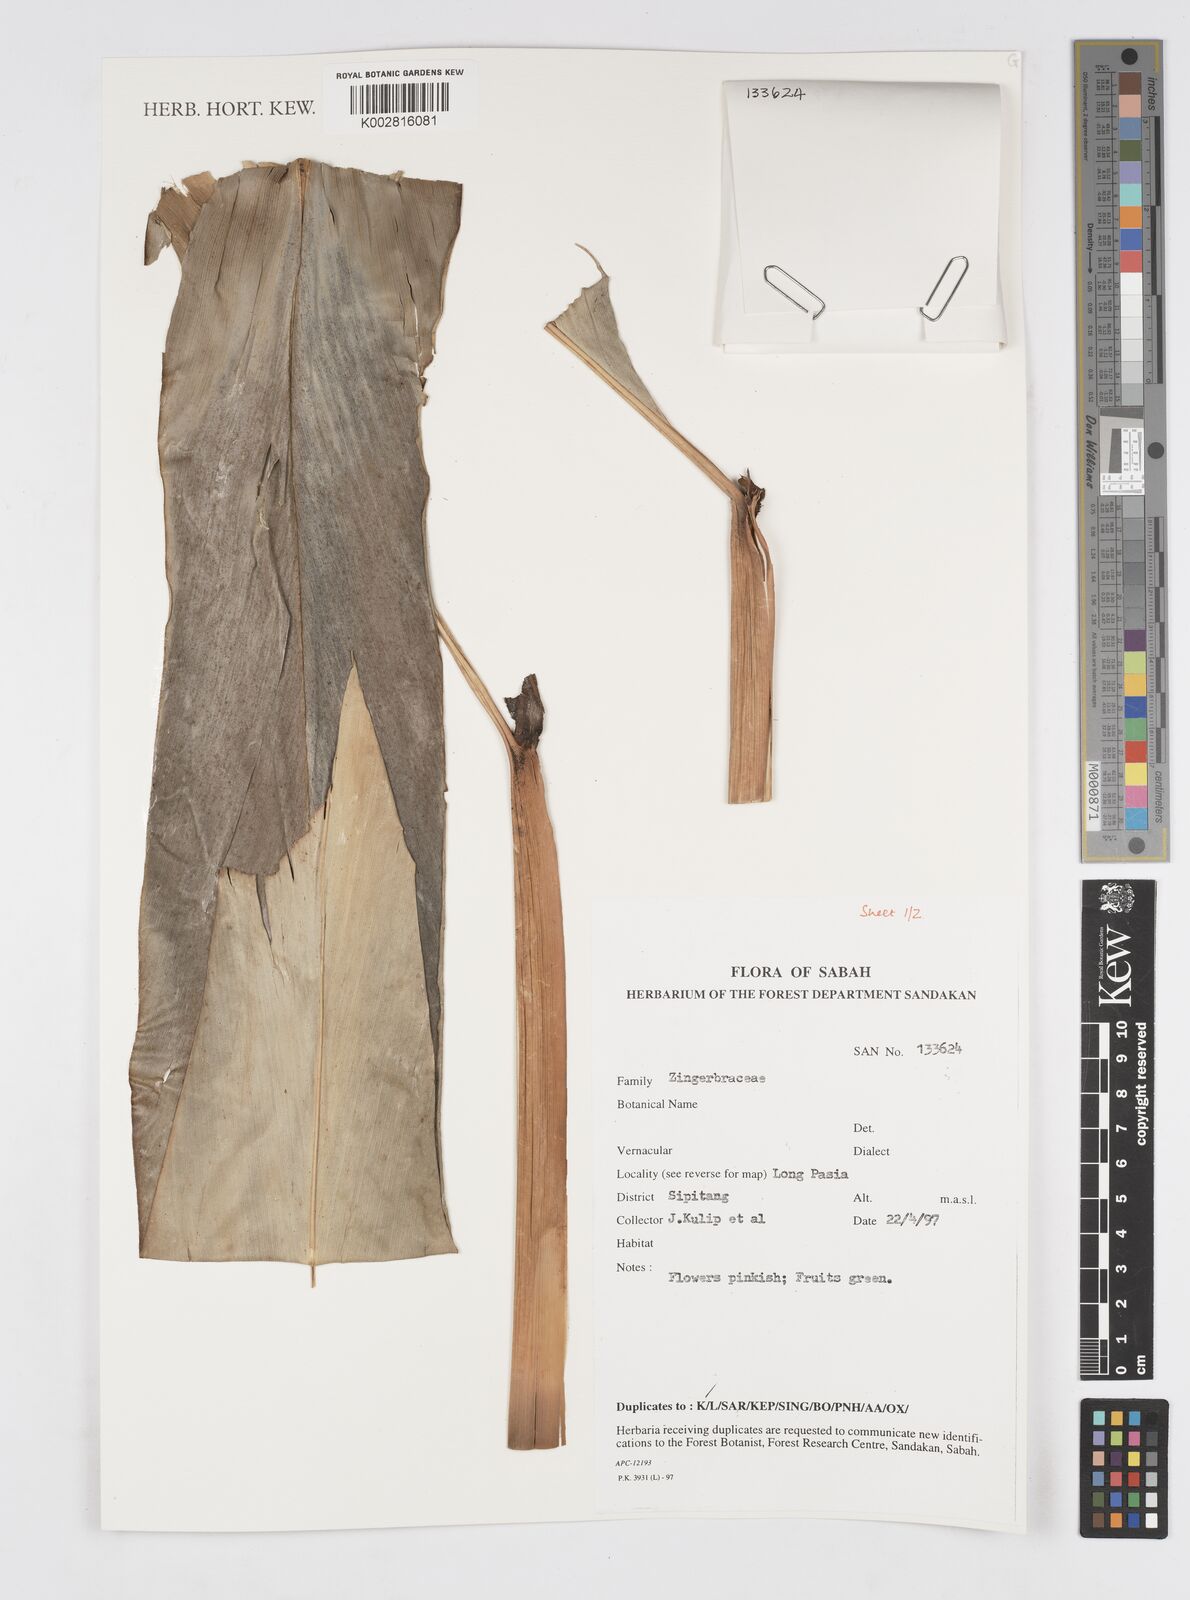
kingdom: Plantae
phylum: Tracheophyta
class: Liliopsida
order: Zingiberales
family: Zingiberaceae
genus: Alpinia
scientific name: Alpinia
